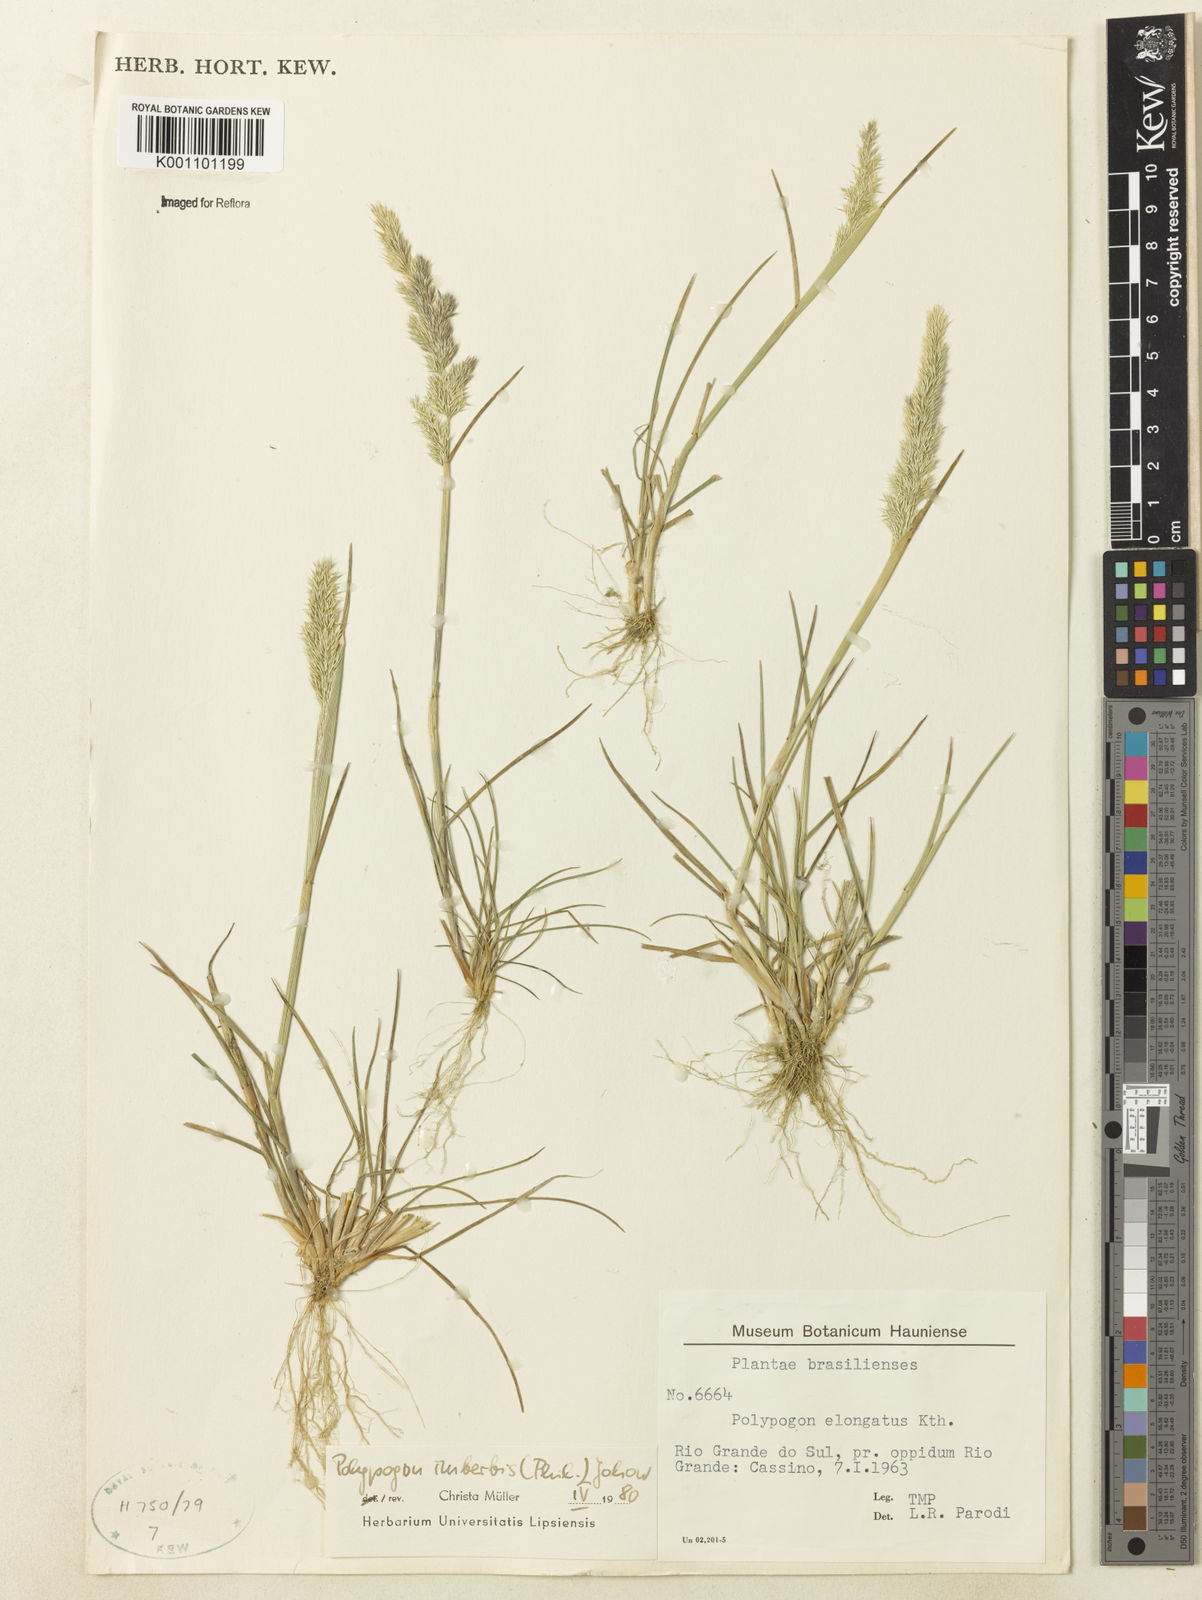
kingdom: Plantae
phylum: Tracheophyta
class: Liliopsida
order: Poales
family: Poaceae
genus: Polypogon
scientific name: Polypogon imberbis
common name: Beardless rabbitsfoot grass
